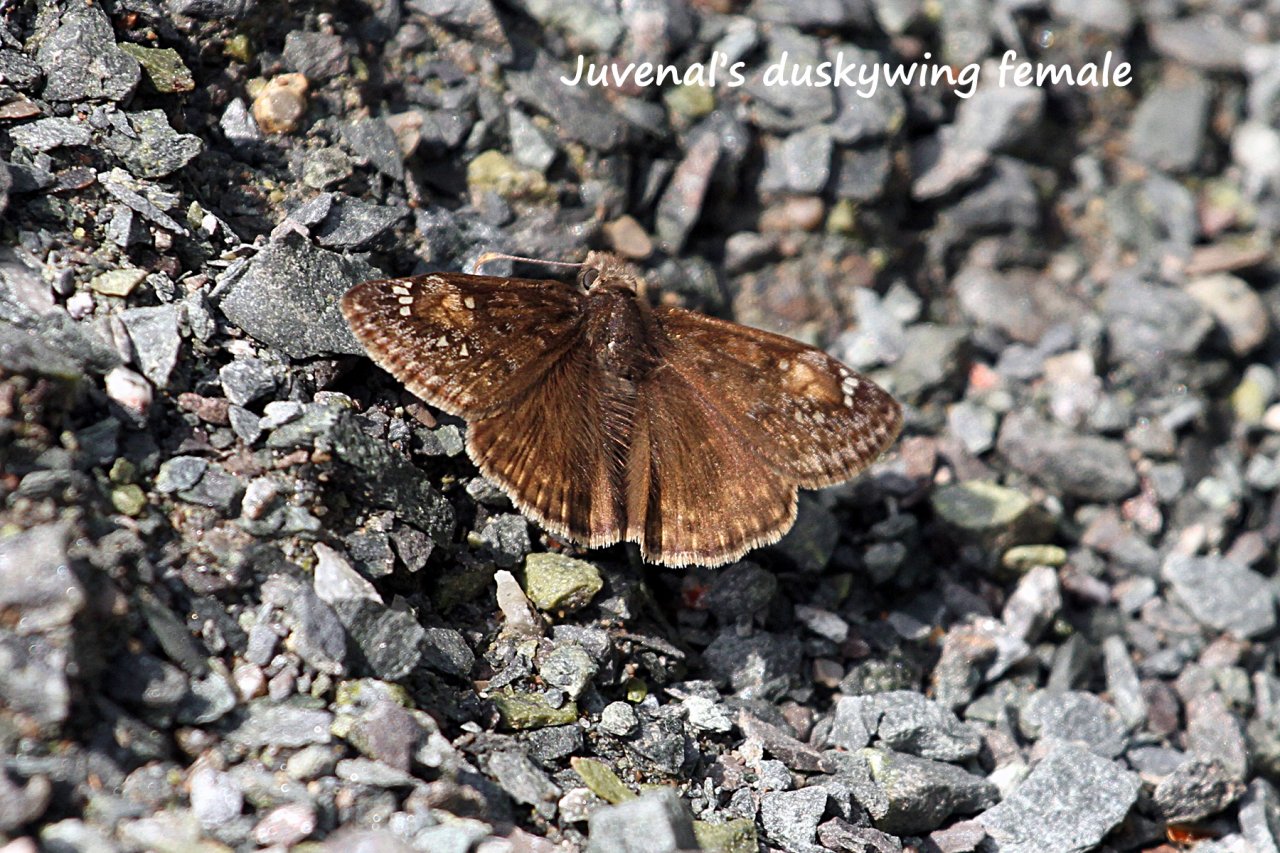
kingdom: Animalia
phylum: Arthropoda
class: Insecta
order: Lepidoptera
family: Hesperiidae
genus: Gesta
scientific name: Gesta
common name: Juvenal's Duskywing
